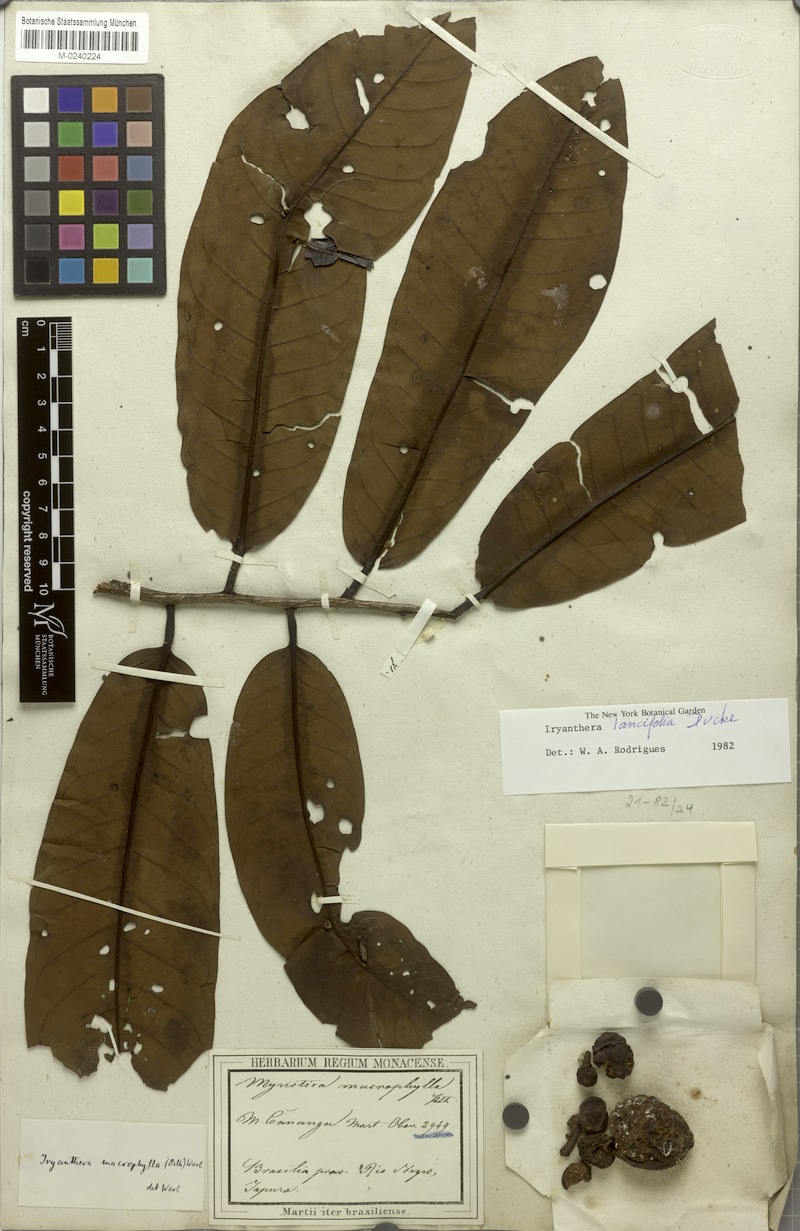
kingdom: Plantae
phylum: Tracheophyta
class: Magnoliopsida
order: Magnoliales
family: Myristicaceae
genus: Iryanthera
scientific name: Iryanthera lancifolia
